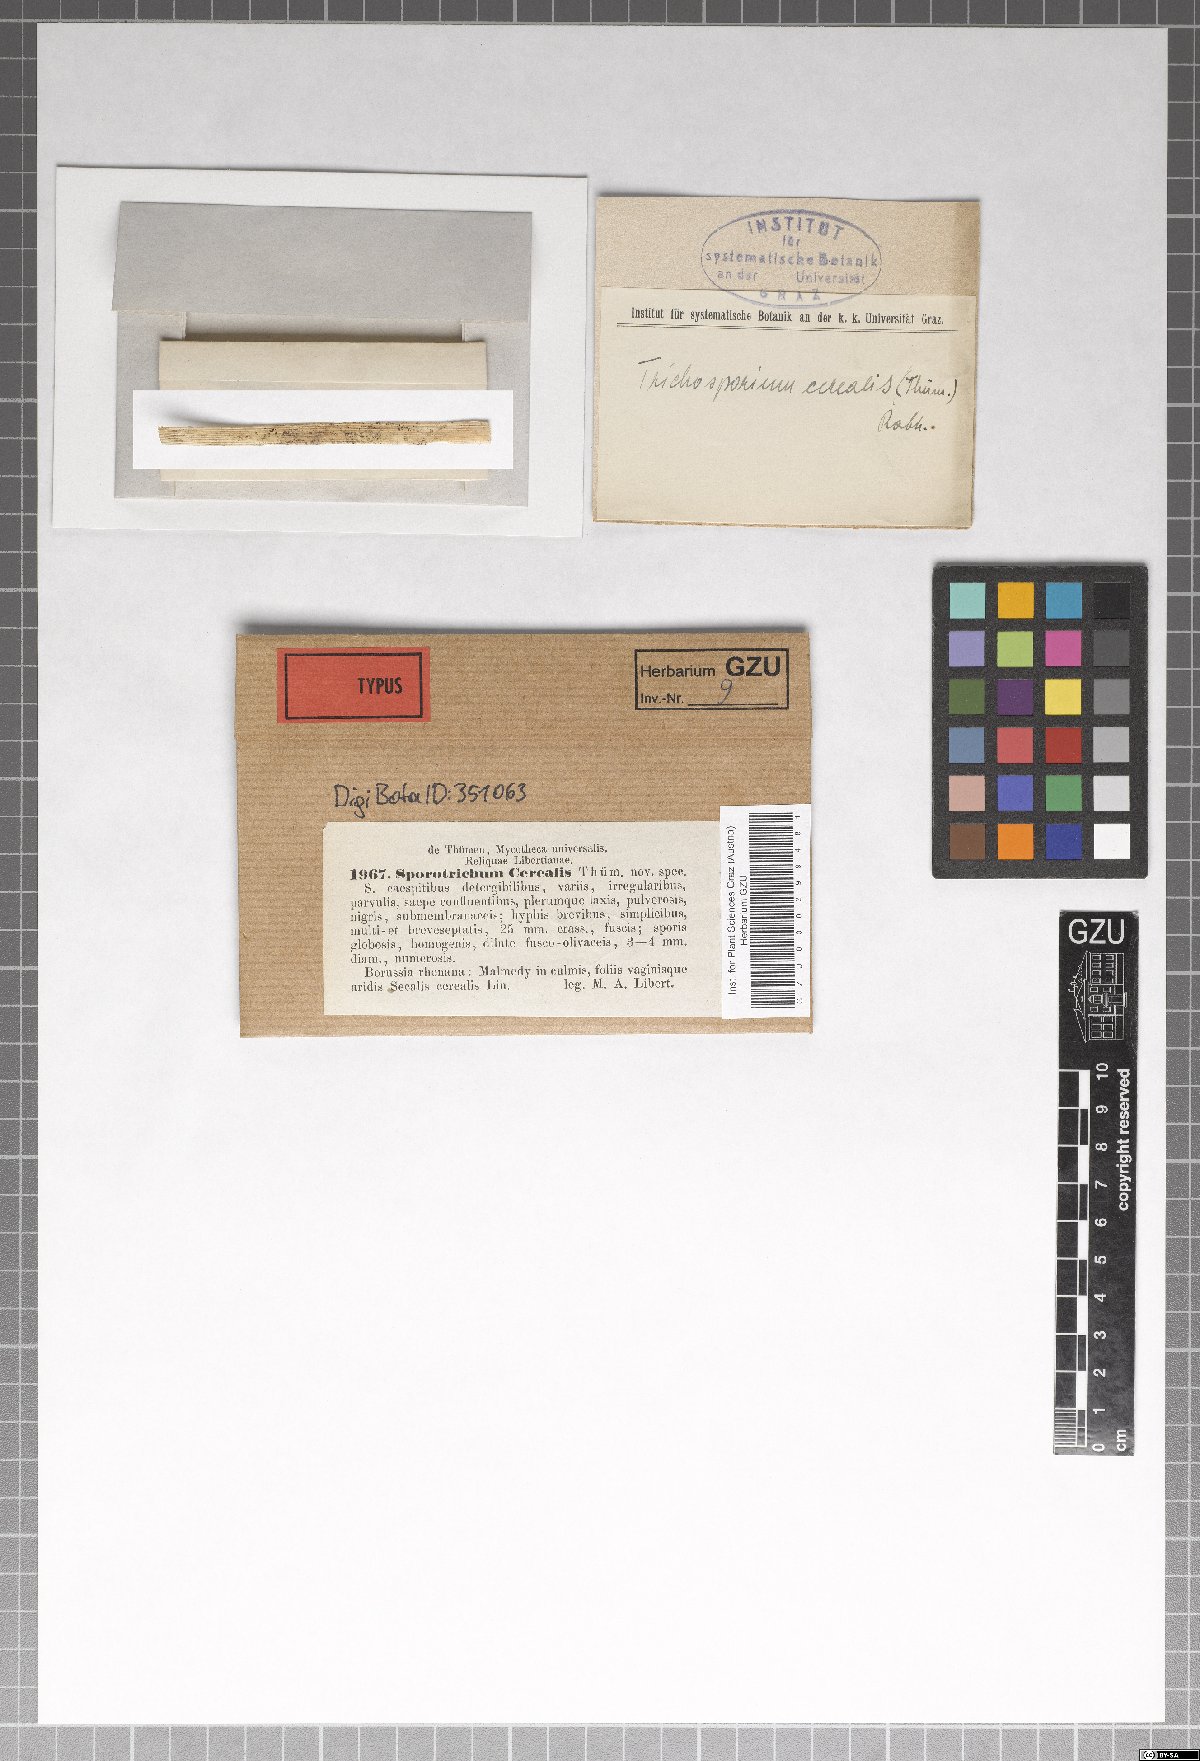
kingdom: Fungi
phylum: Ascomycota
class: Leotiomycetes
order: Helotiales
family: Myxotrichaceae
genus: Oidiodendron
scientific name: Oidiodendron cereale
